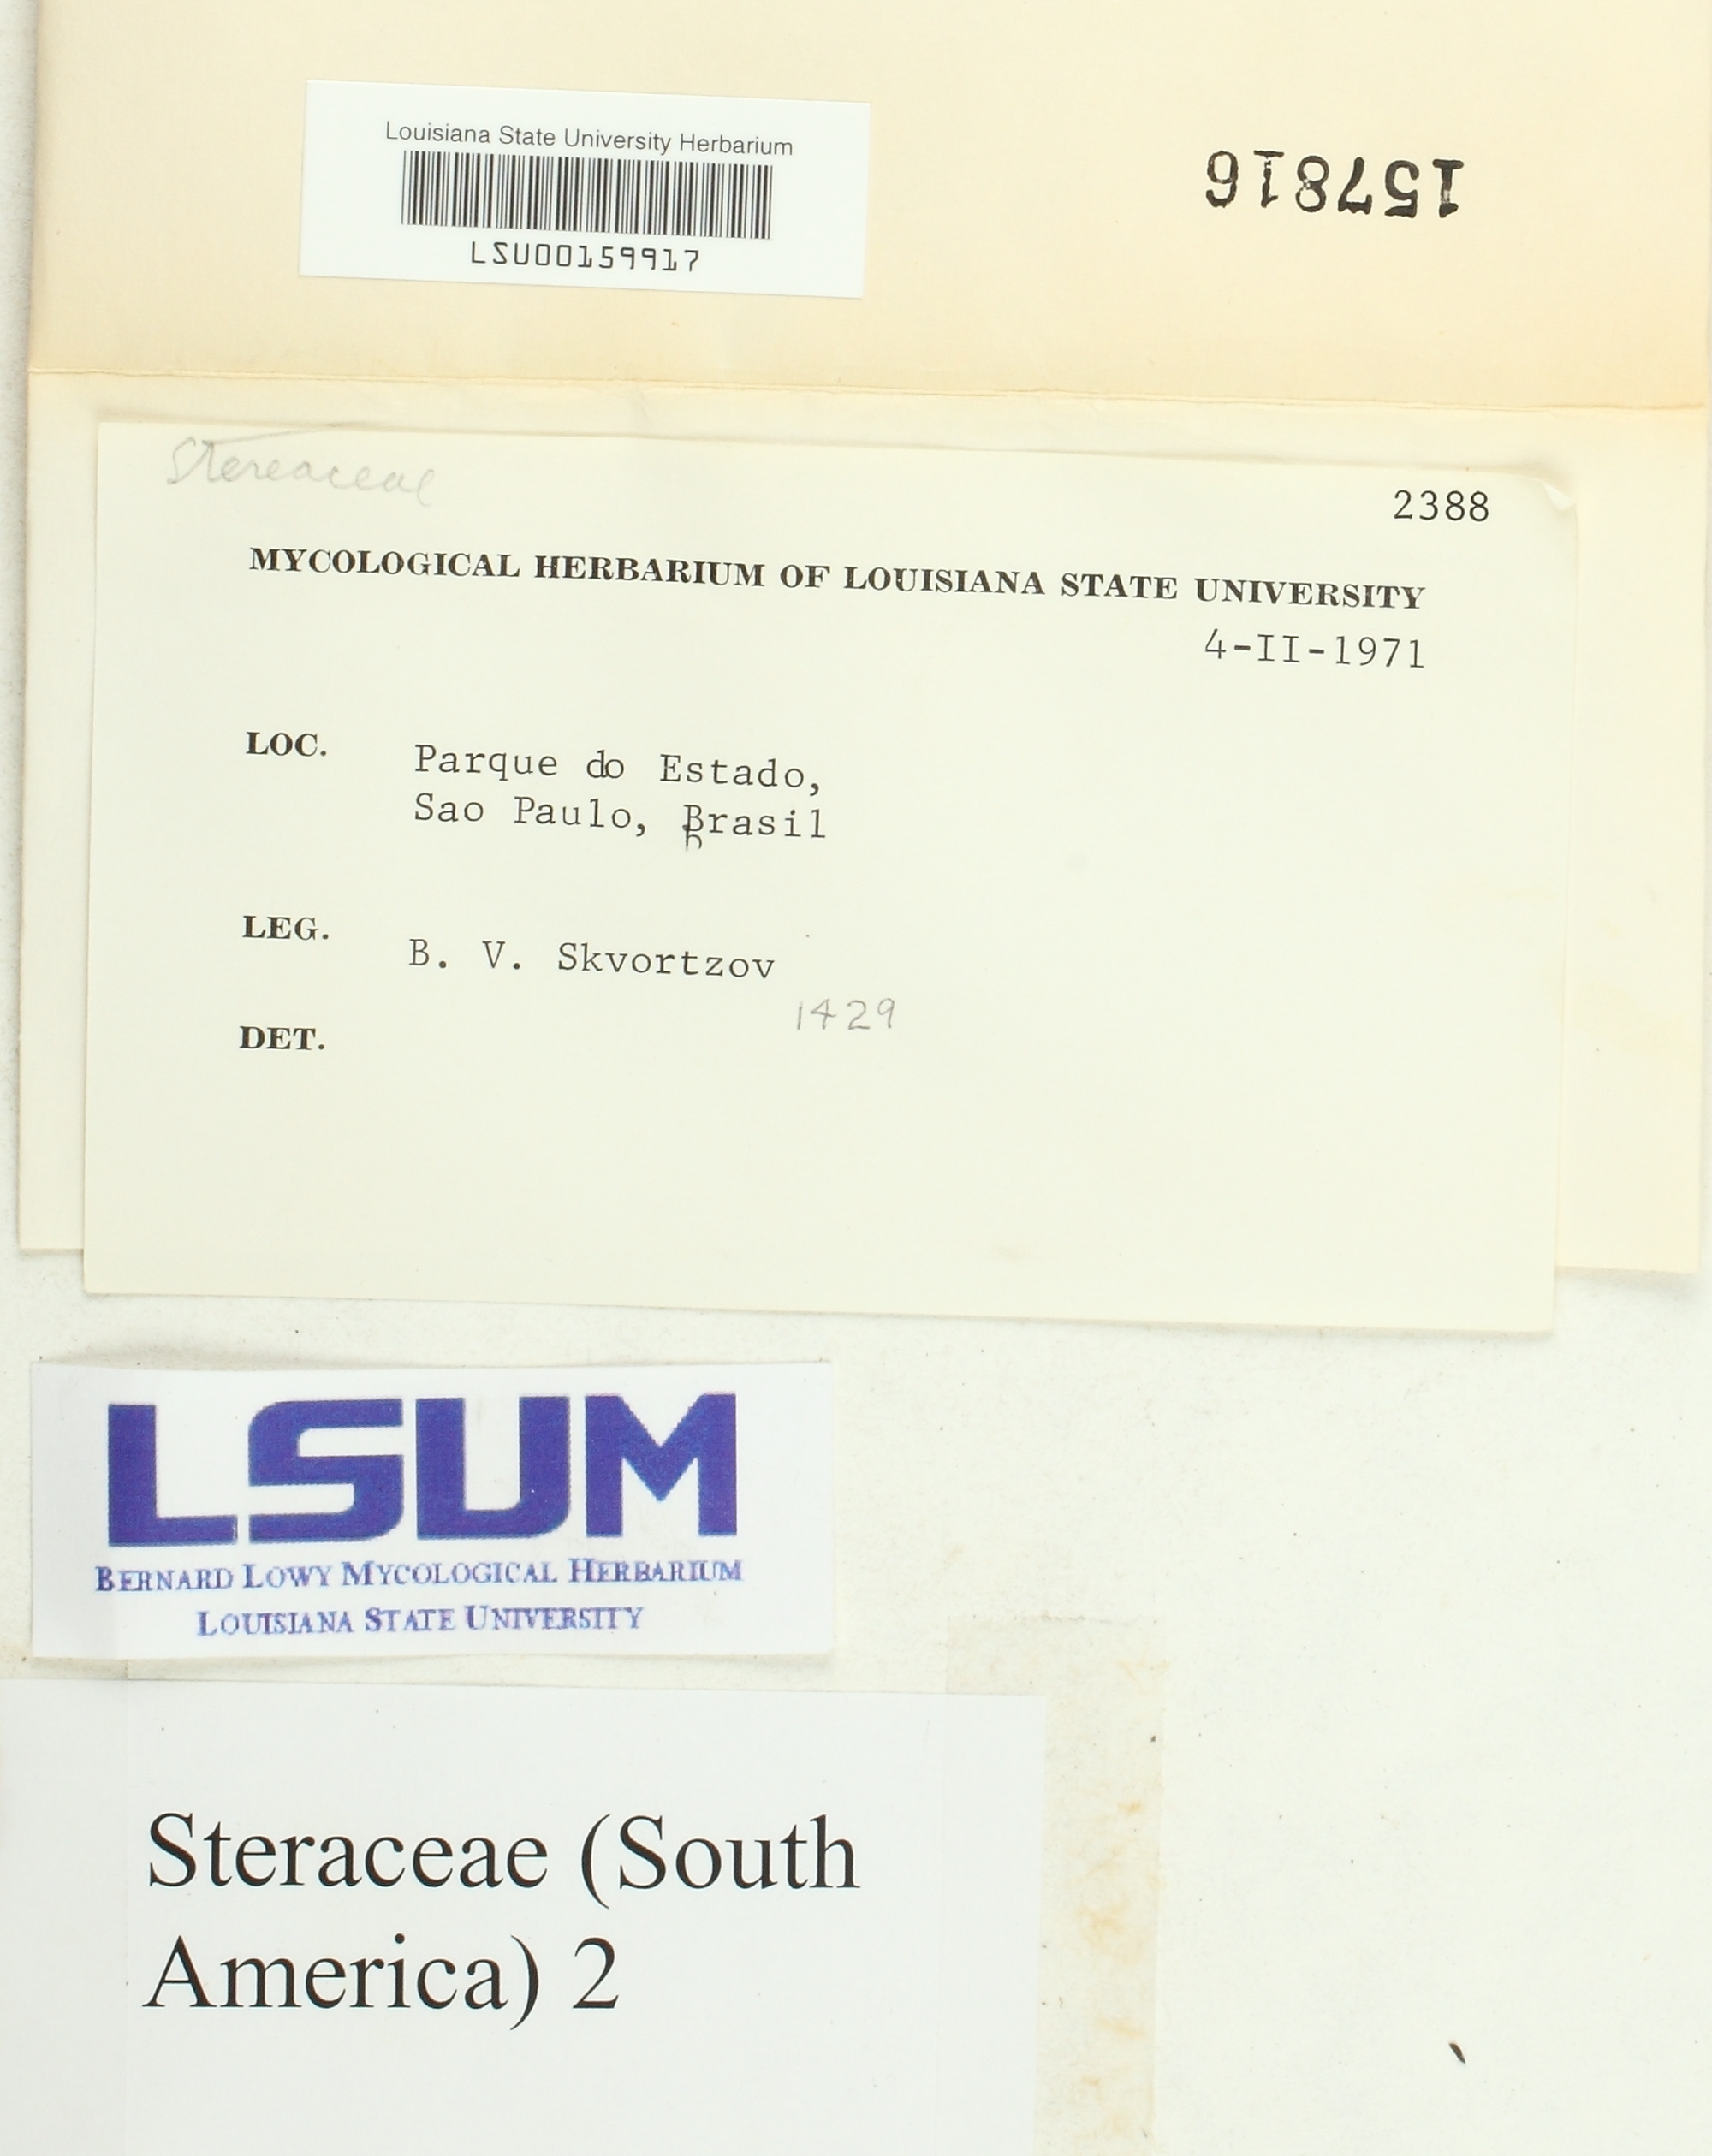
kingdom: Fungi
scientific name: Fungi
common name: Fungi
